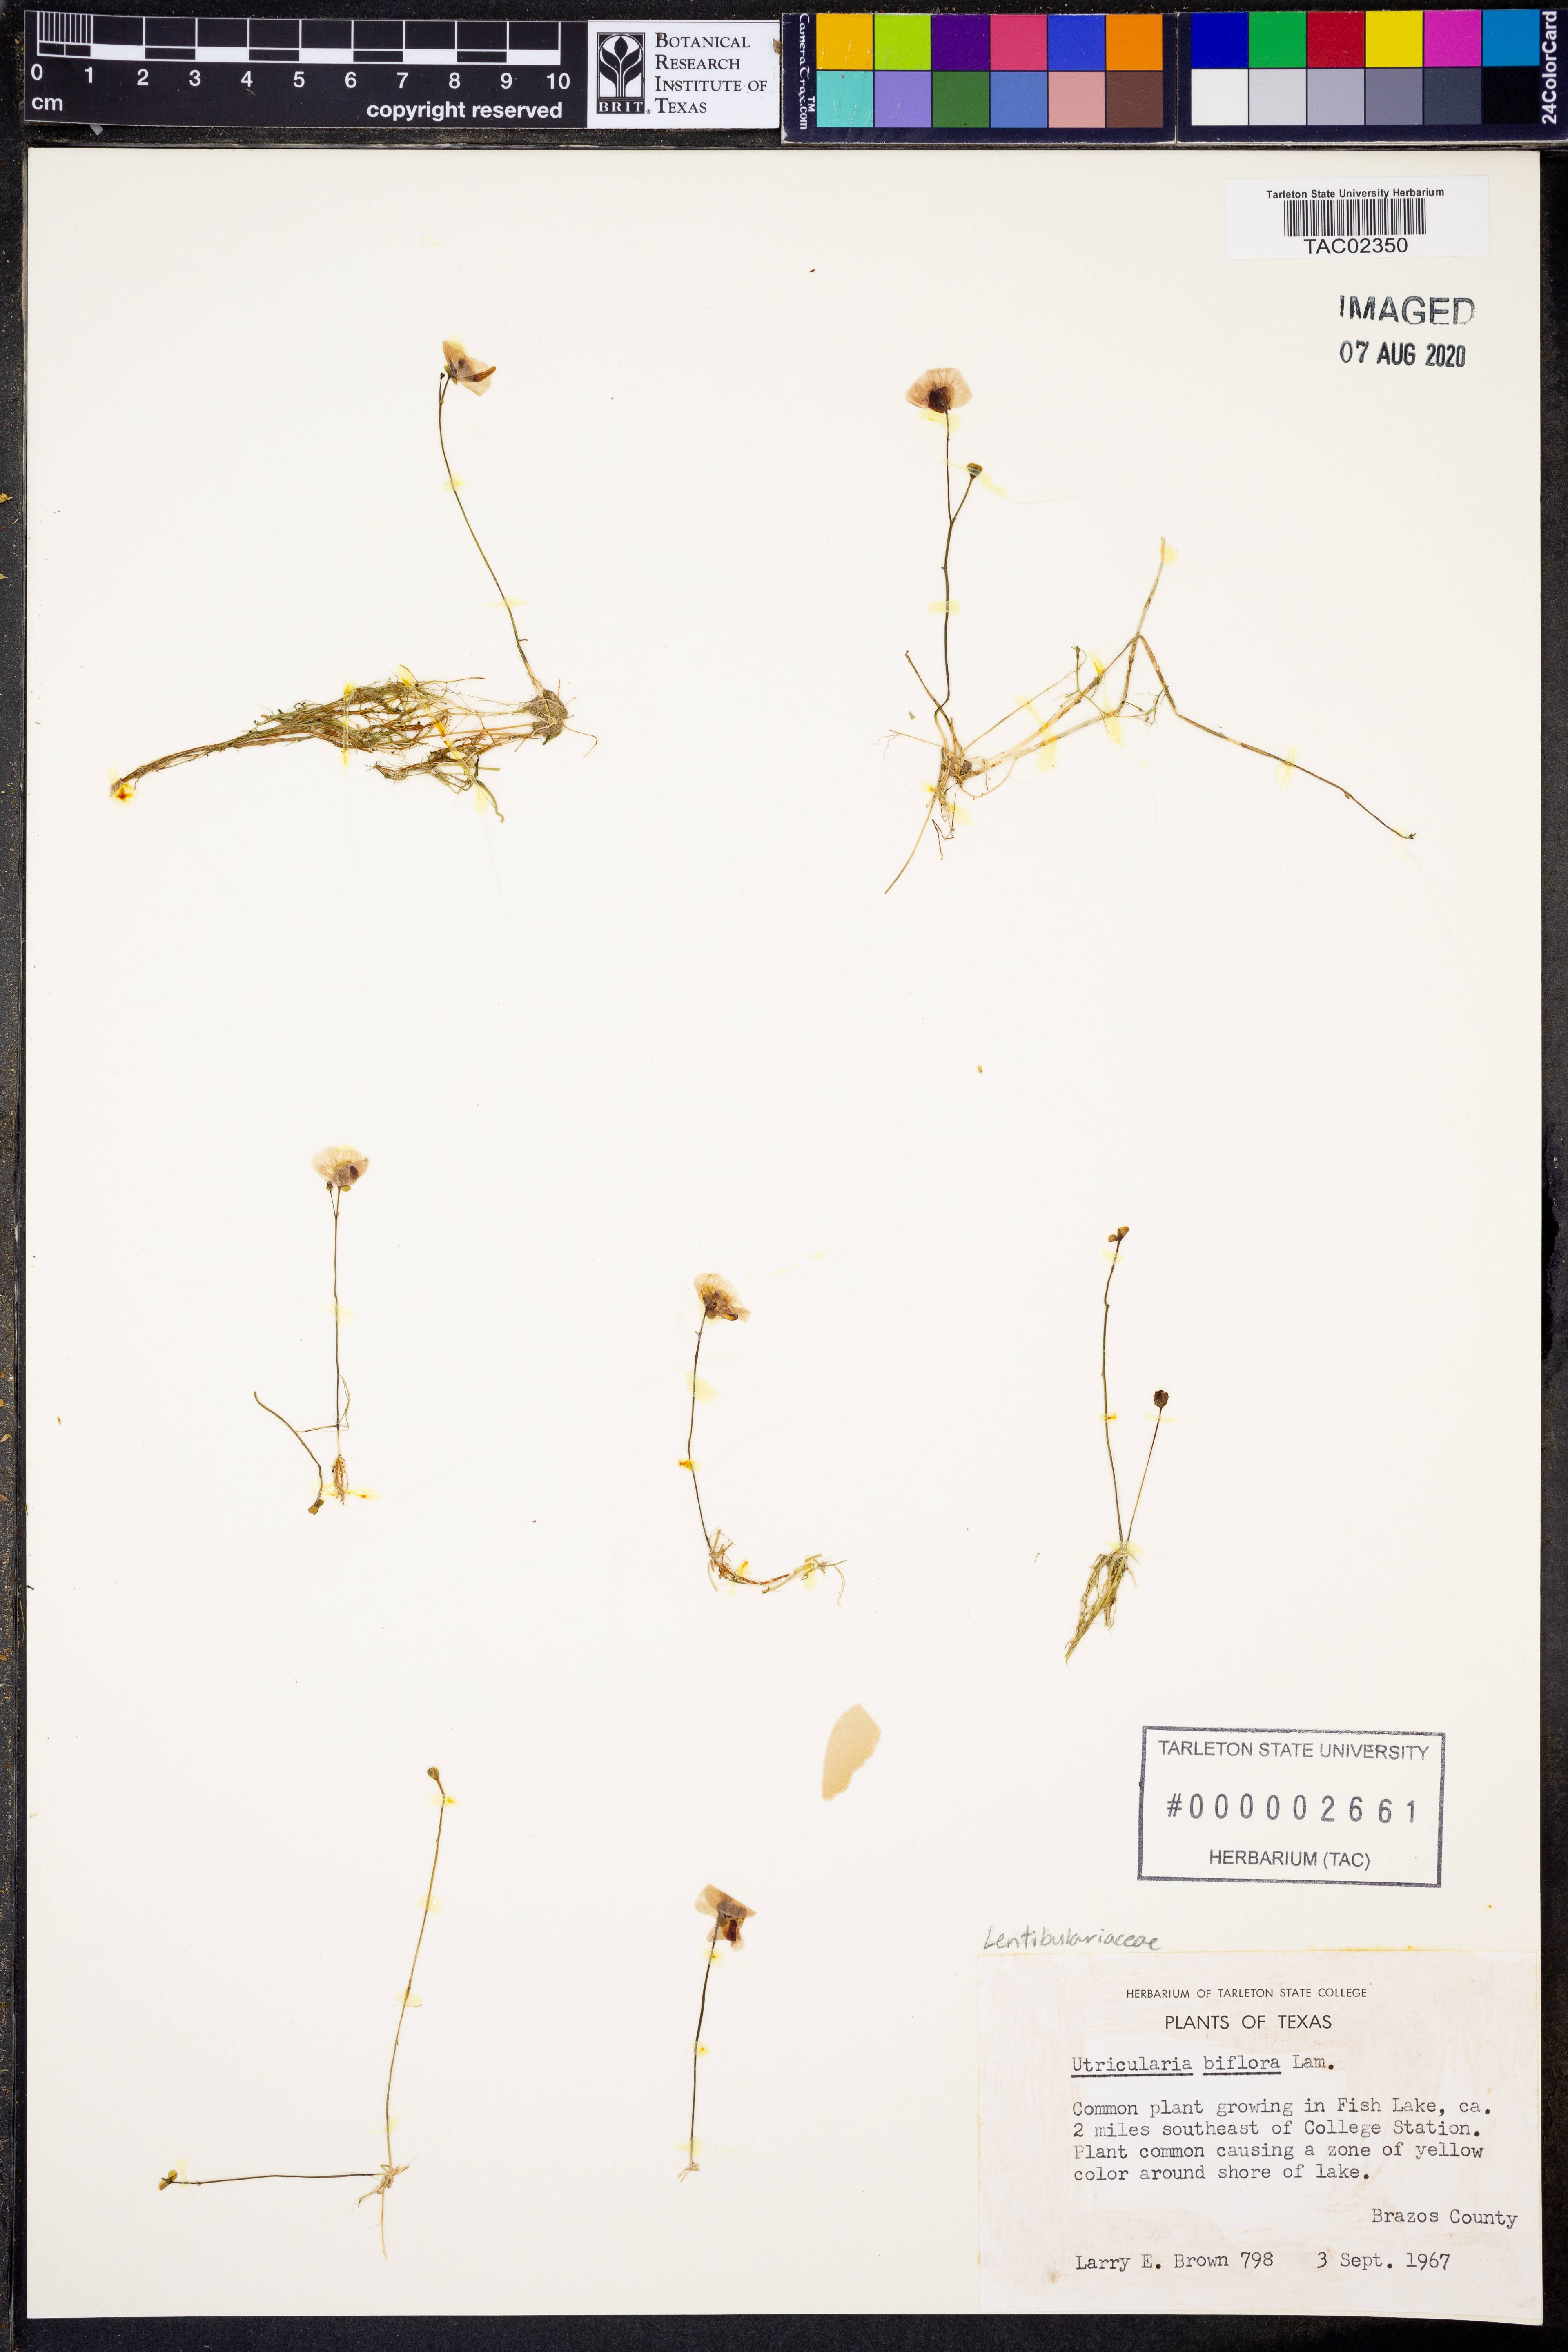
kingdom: Plantae
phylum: Tracheophyta
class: Magnoliopsida
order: Lamiales
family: Lentibulariaceae
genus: Utricularia
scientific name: Utricularia bifida
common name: Bifid bladderwort
